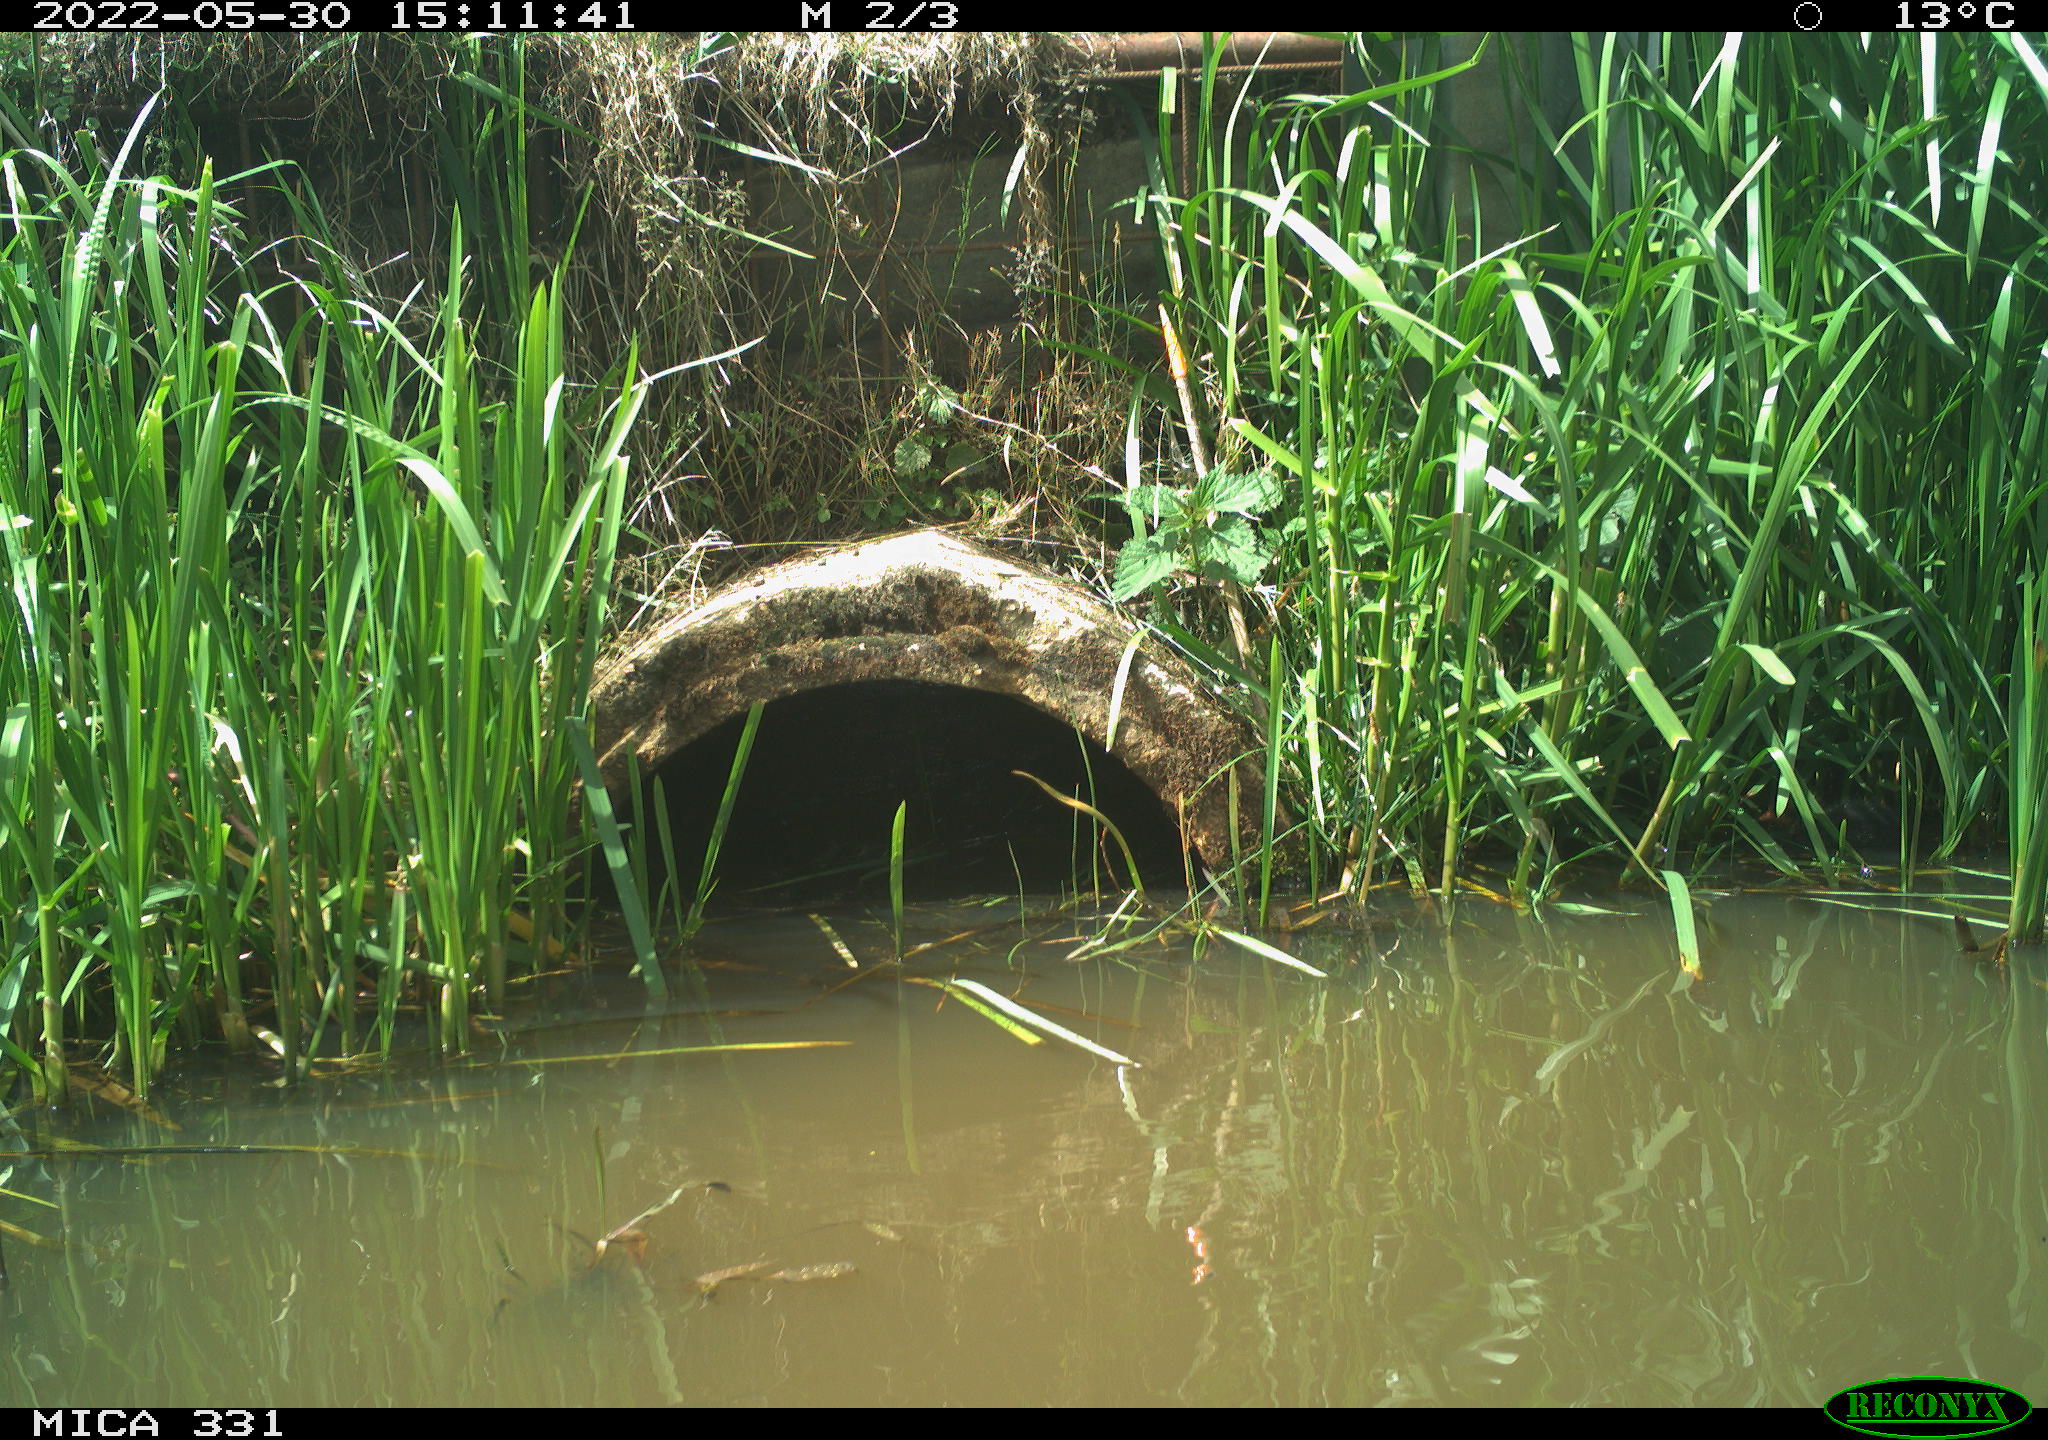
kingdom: Animalia
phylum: Chordata
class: Aves
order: Gruiformes
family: Rallidae
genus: Fulica
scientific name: Fulica atra
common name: Eurasian coot
